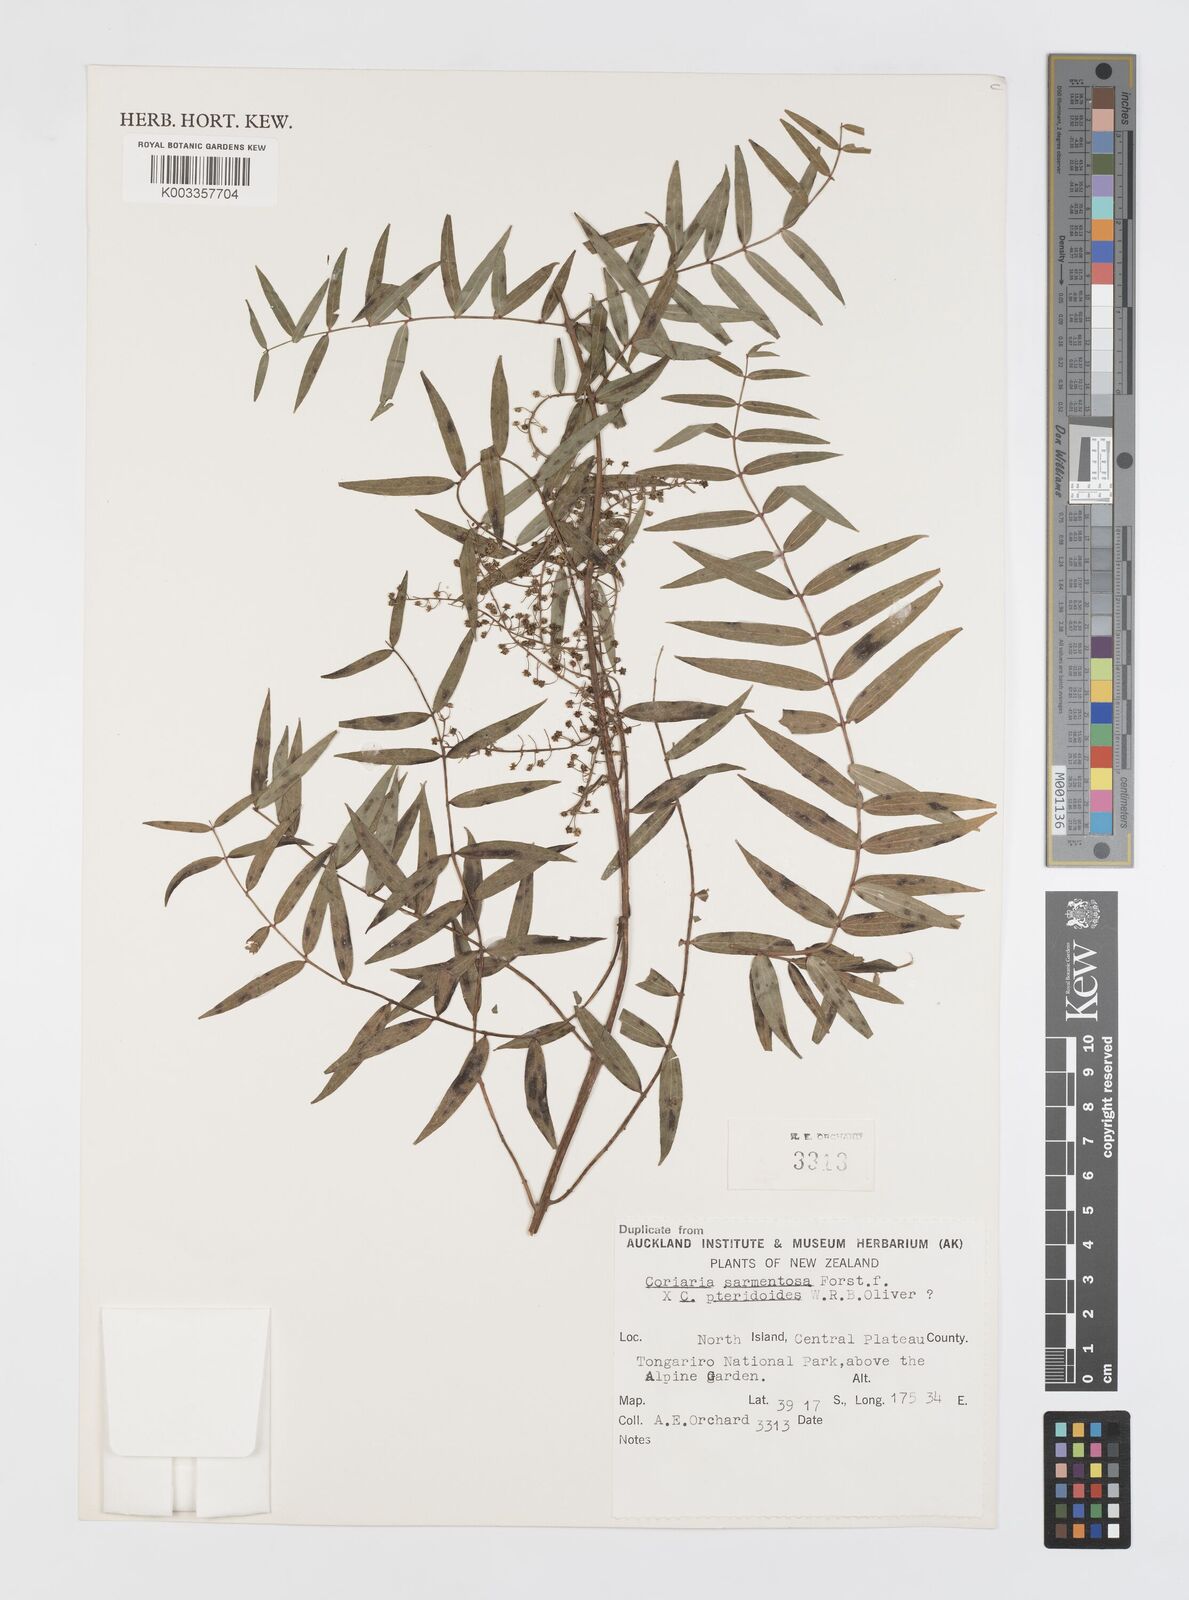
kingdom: Plantae
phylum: Tracheophyta
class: Magnoliopsida
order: Cucurbitales
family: Coriariaceae
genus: Coriaria
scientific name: Coriaria pteridoides
